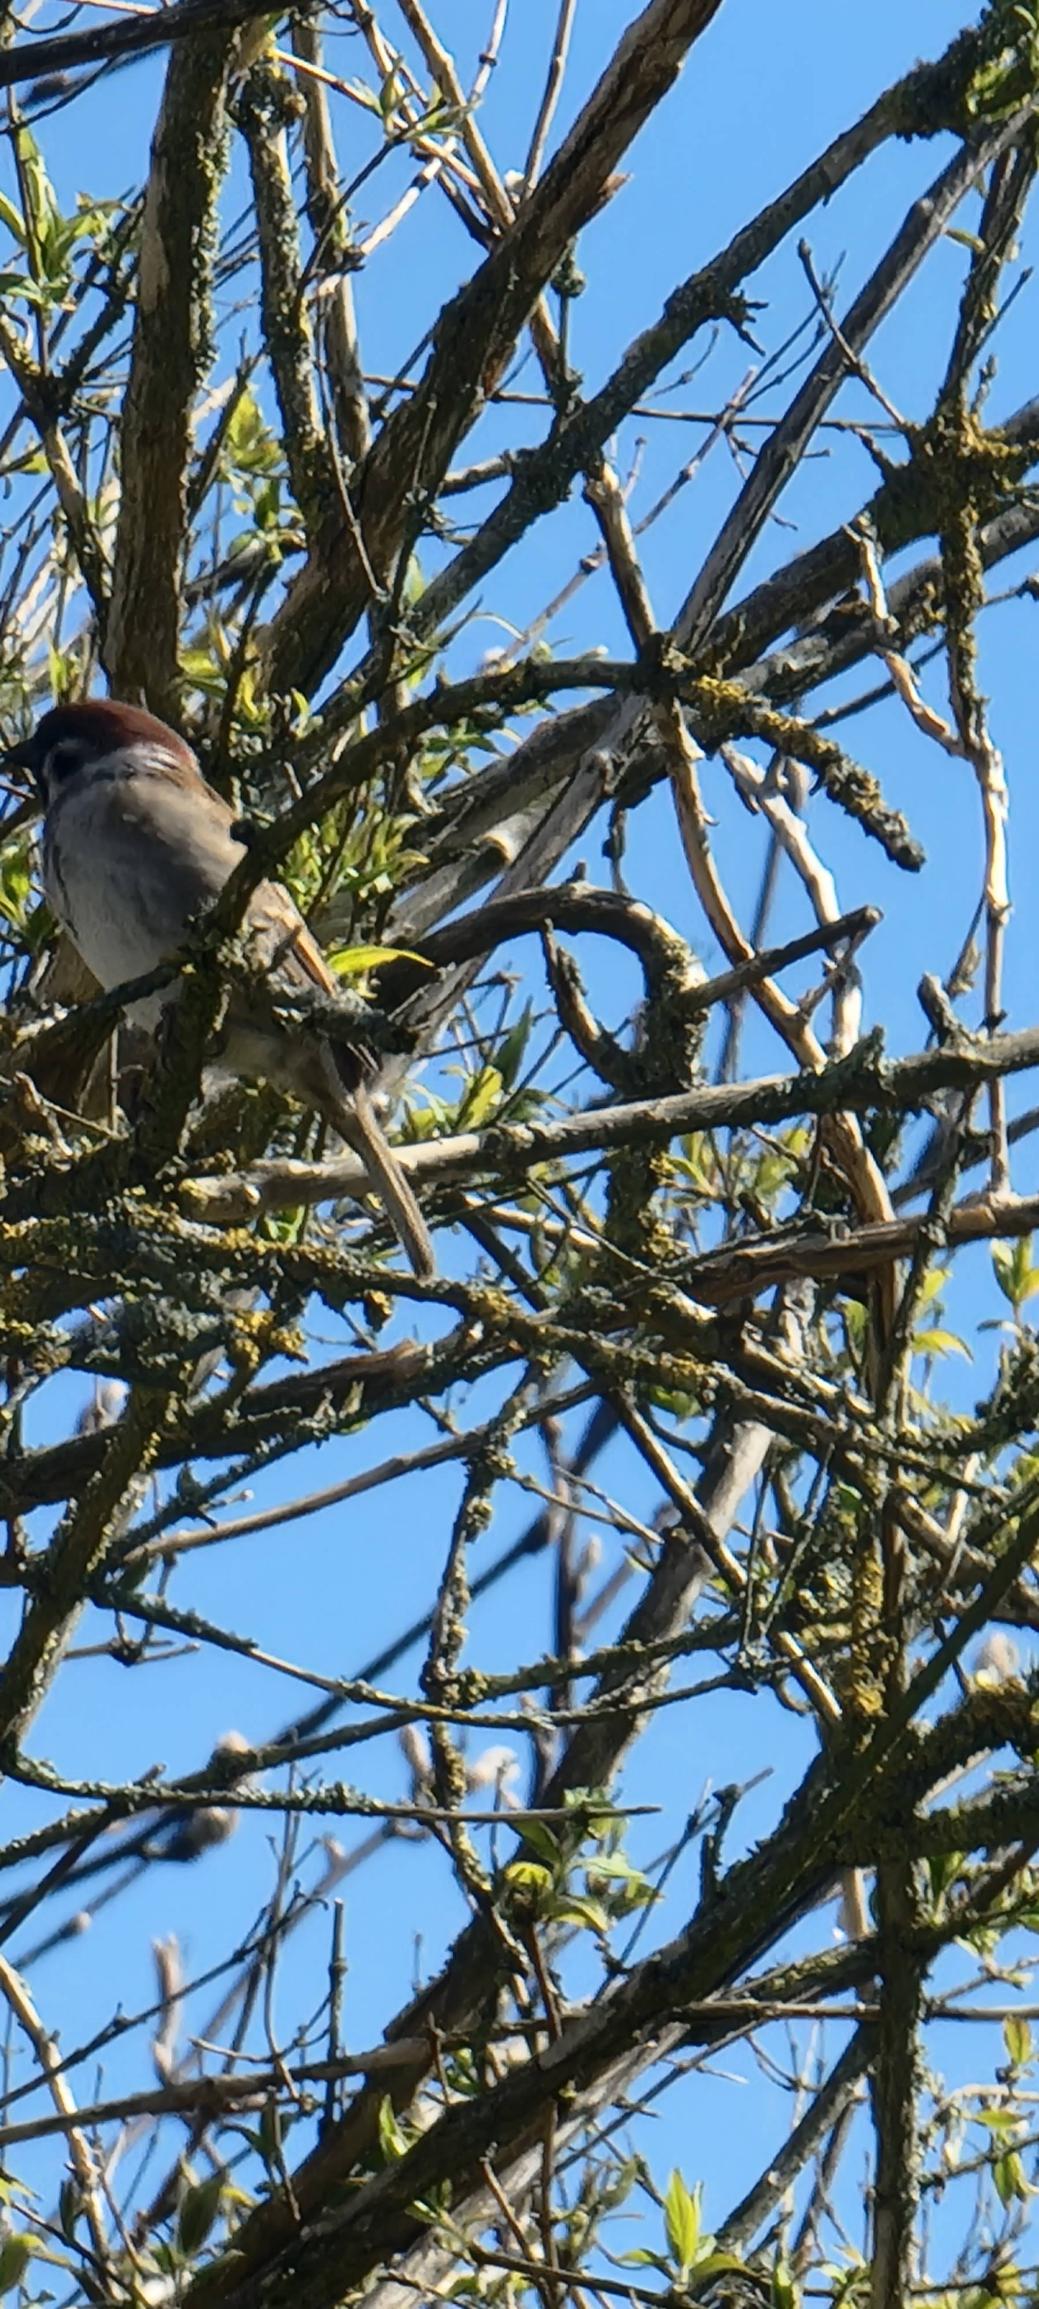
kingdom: Animalia
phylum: Chordata
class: Aves
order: Passeriformes
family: Passeridae
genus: Passer
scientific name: Passer montanus
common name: Skovspurv
